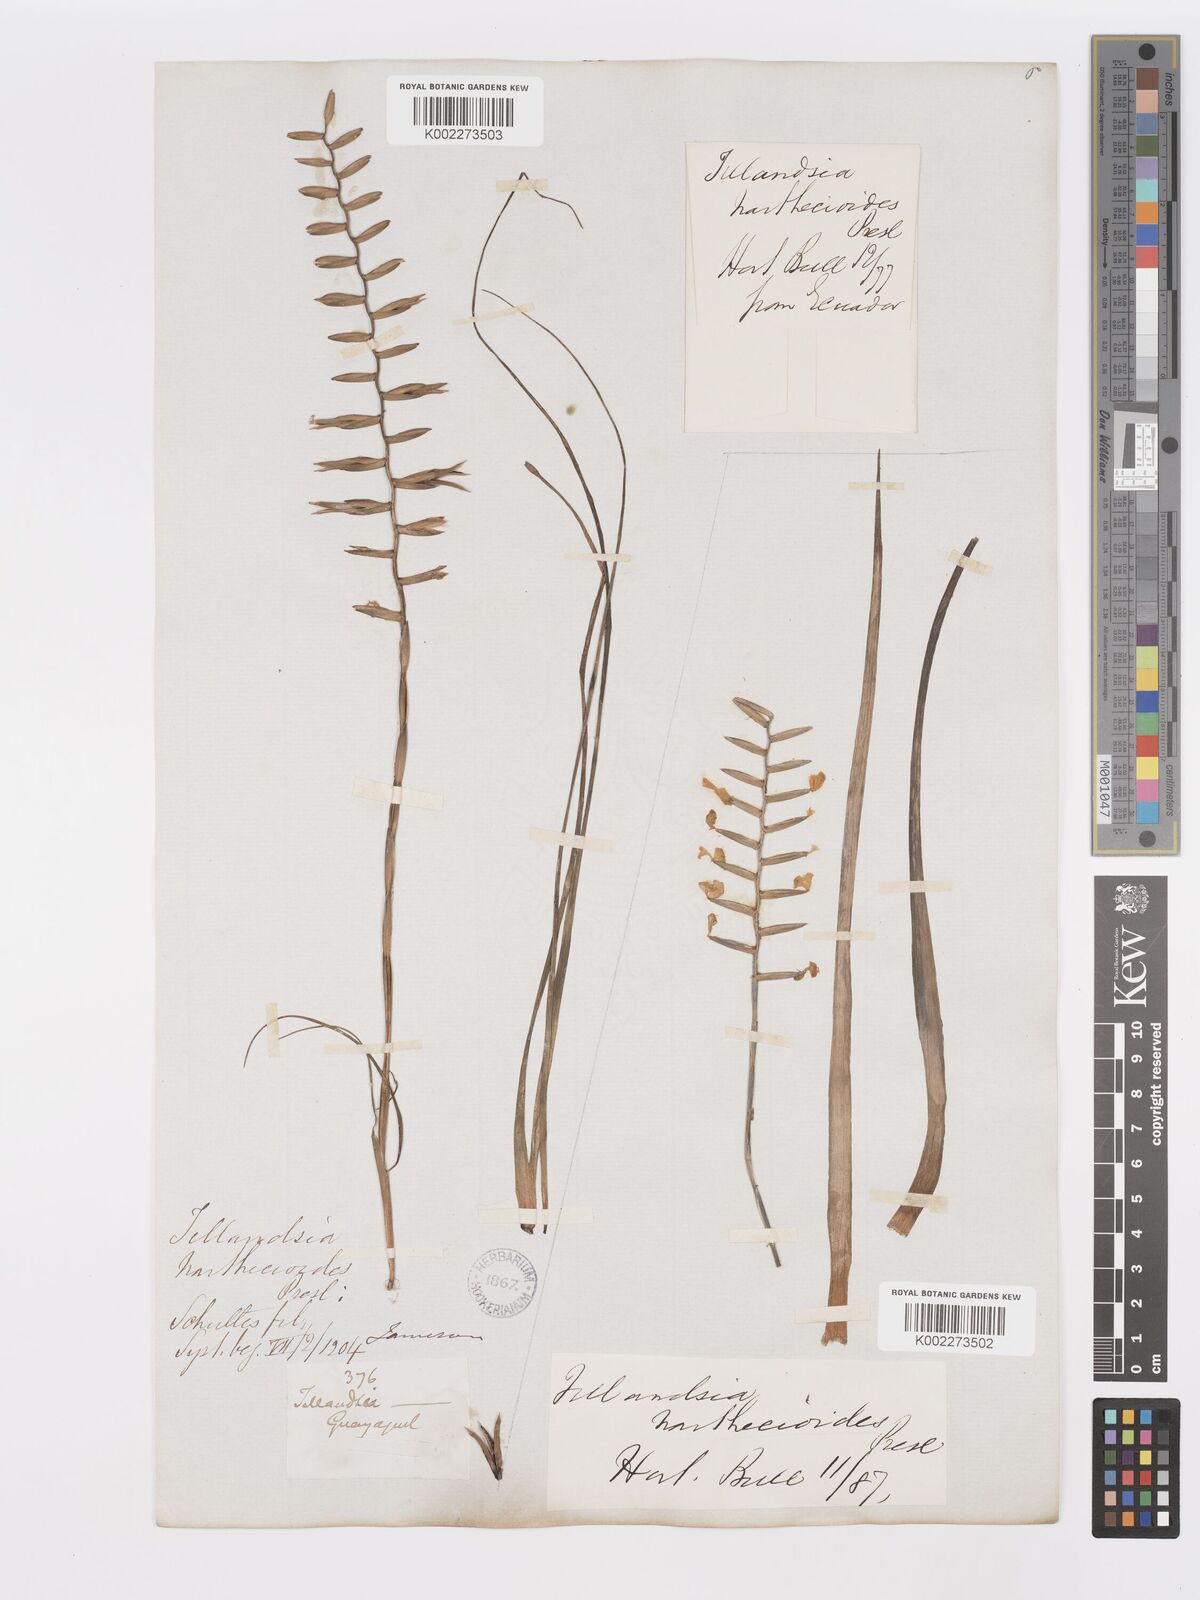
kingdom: Plantae
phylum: Tracheophyta
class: Liliopsida
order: Poales
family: Bromeliaceae
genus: Lemeltonia
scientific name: Lemeltonia narthecioides
